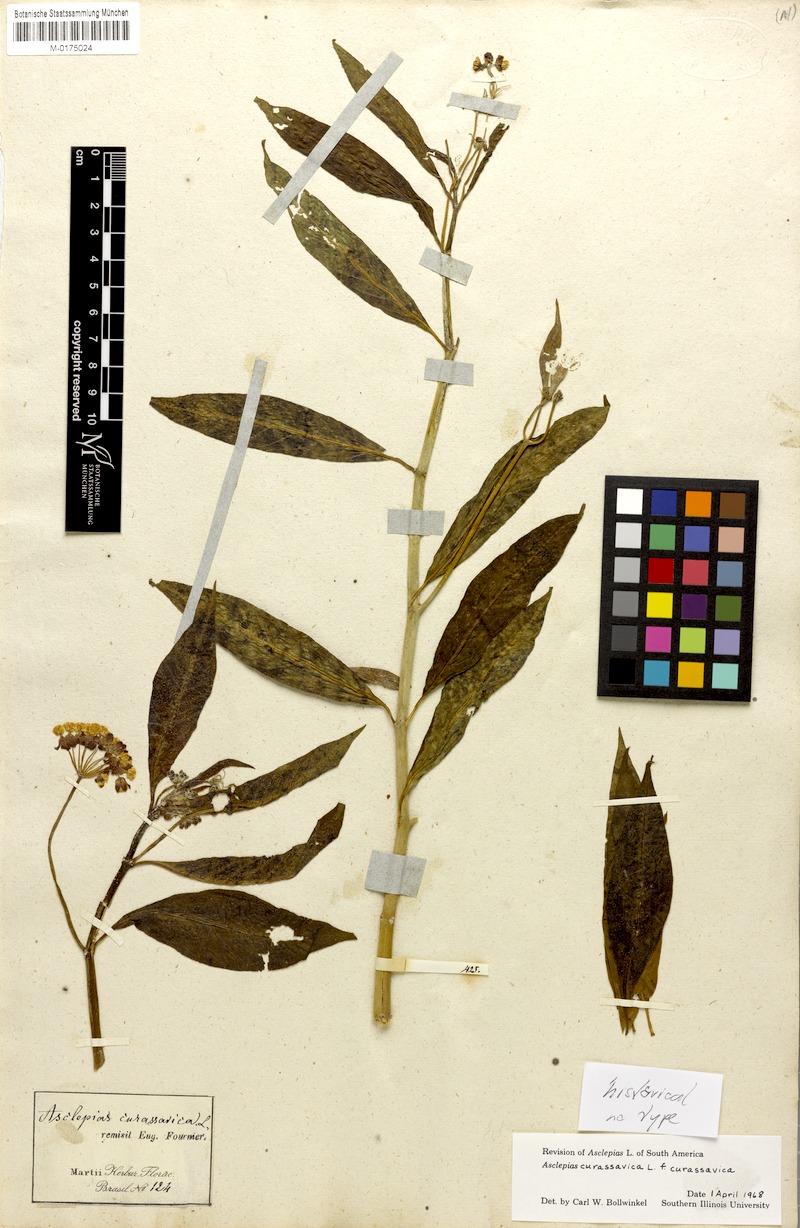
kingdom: Plantae
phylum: Tracheophyta
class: Magnoliopsida
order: Gentianales
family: Apocynaceae
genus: Asclepias
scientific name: Asclepias curassavica
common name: Bloodflower
